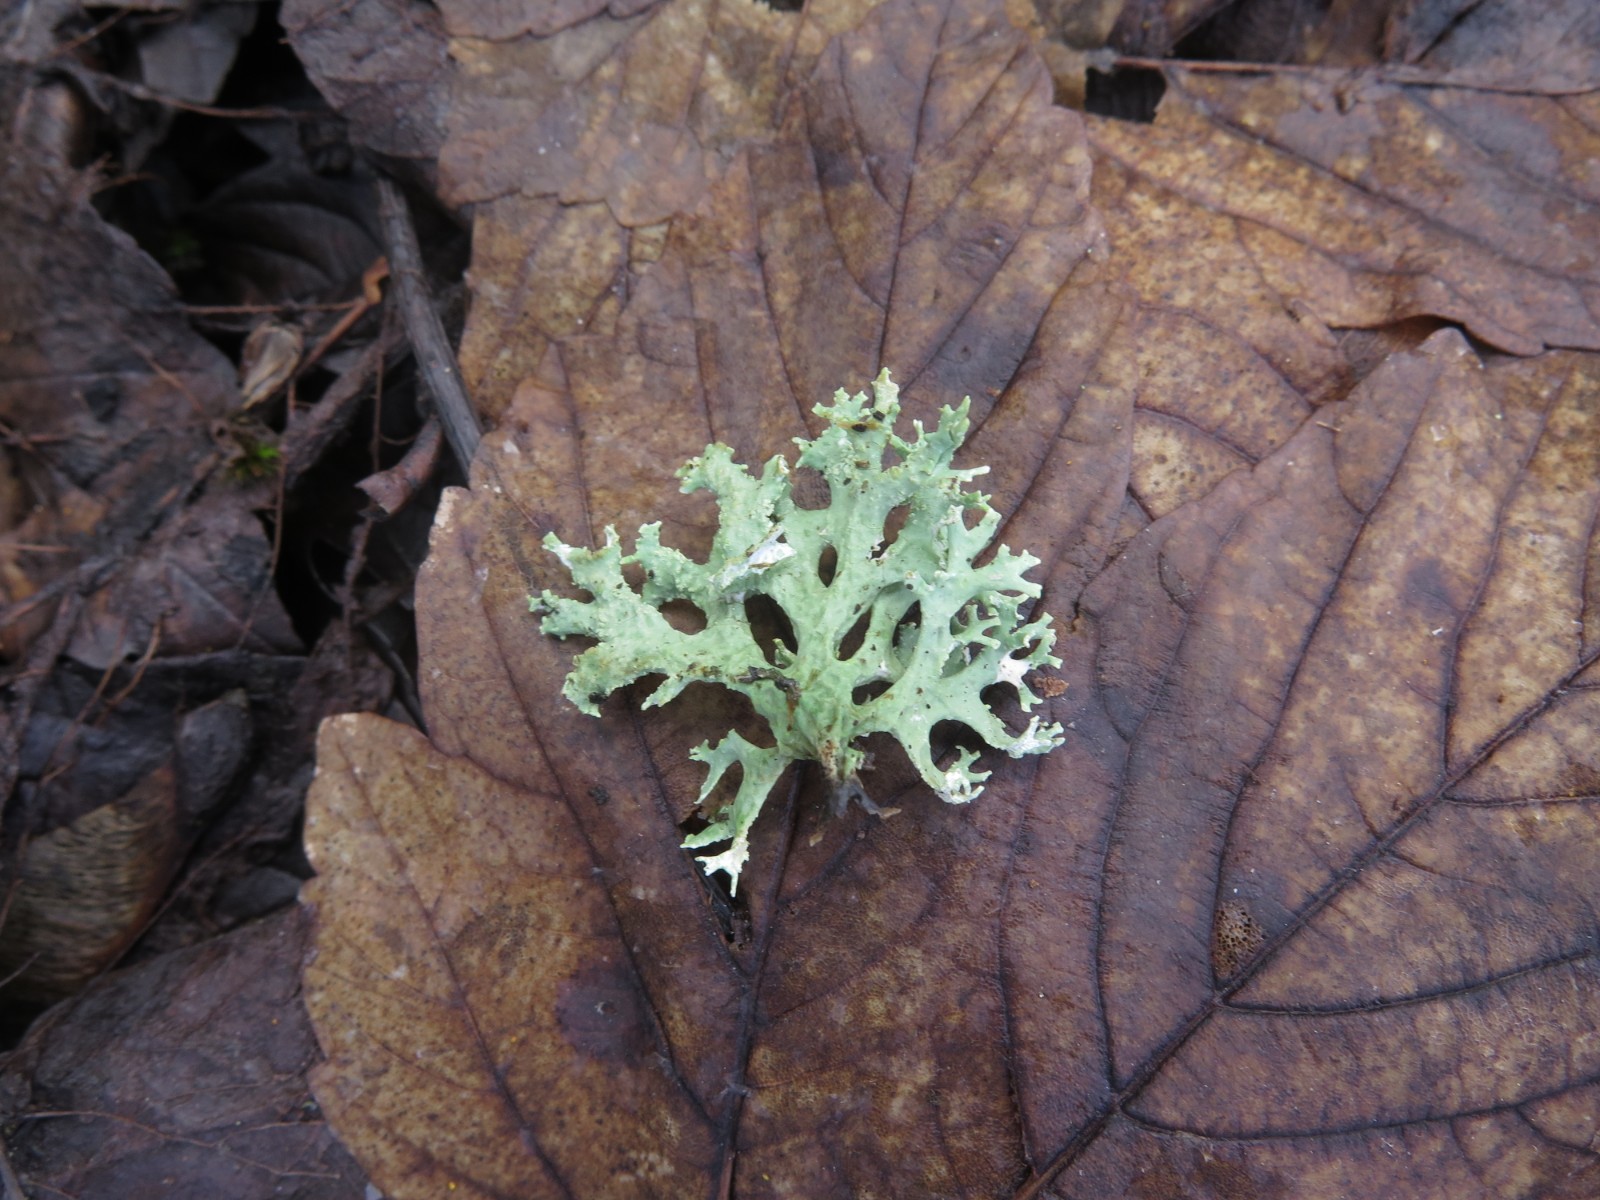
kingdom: Fungi
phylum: Ascomycota
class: Lecanoromycetes
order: Lecanorales
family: Parmeliaceae
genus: Evernia
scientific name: Evernia prunastri
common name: almindelig slåenlav
